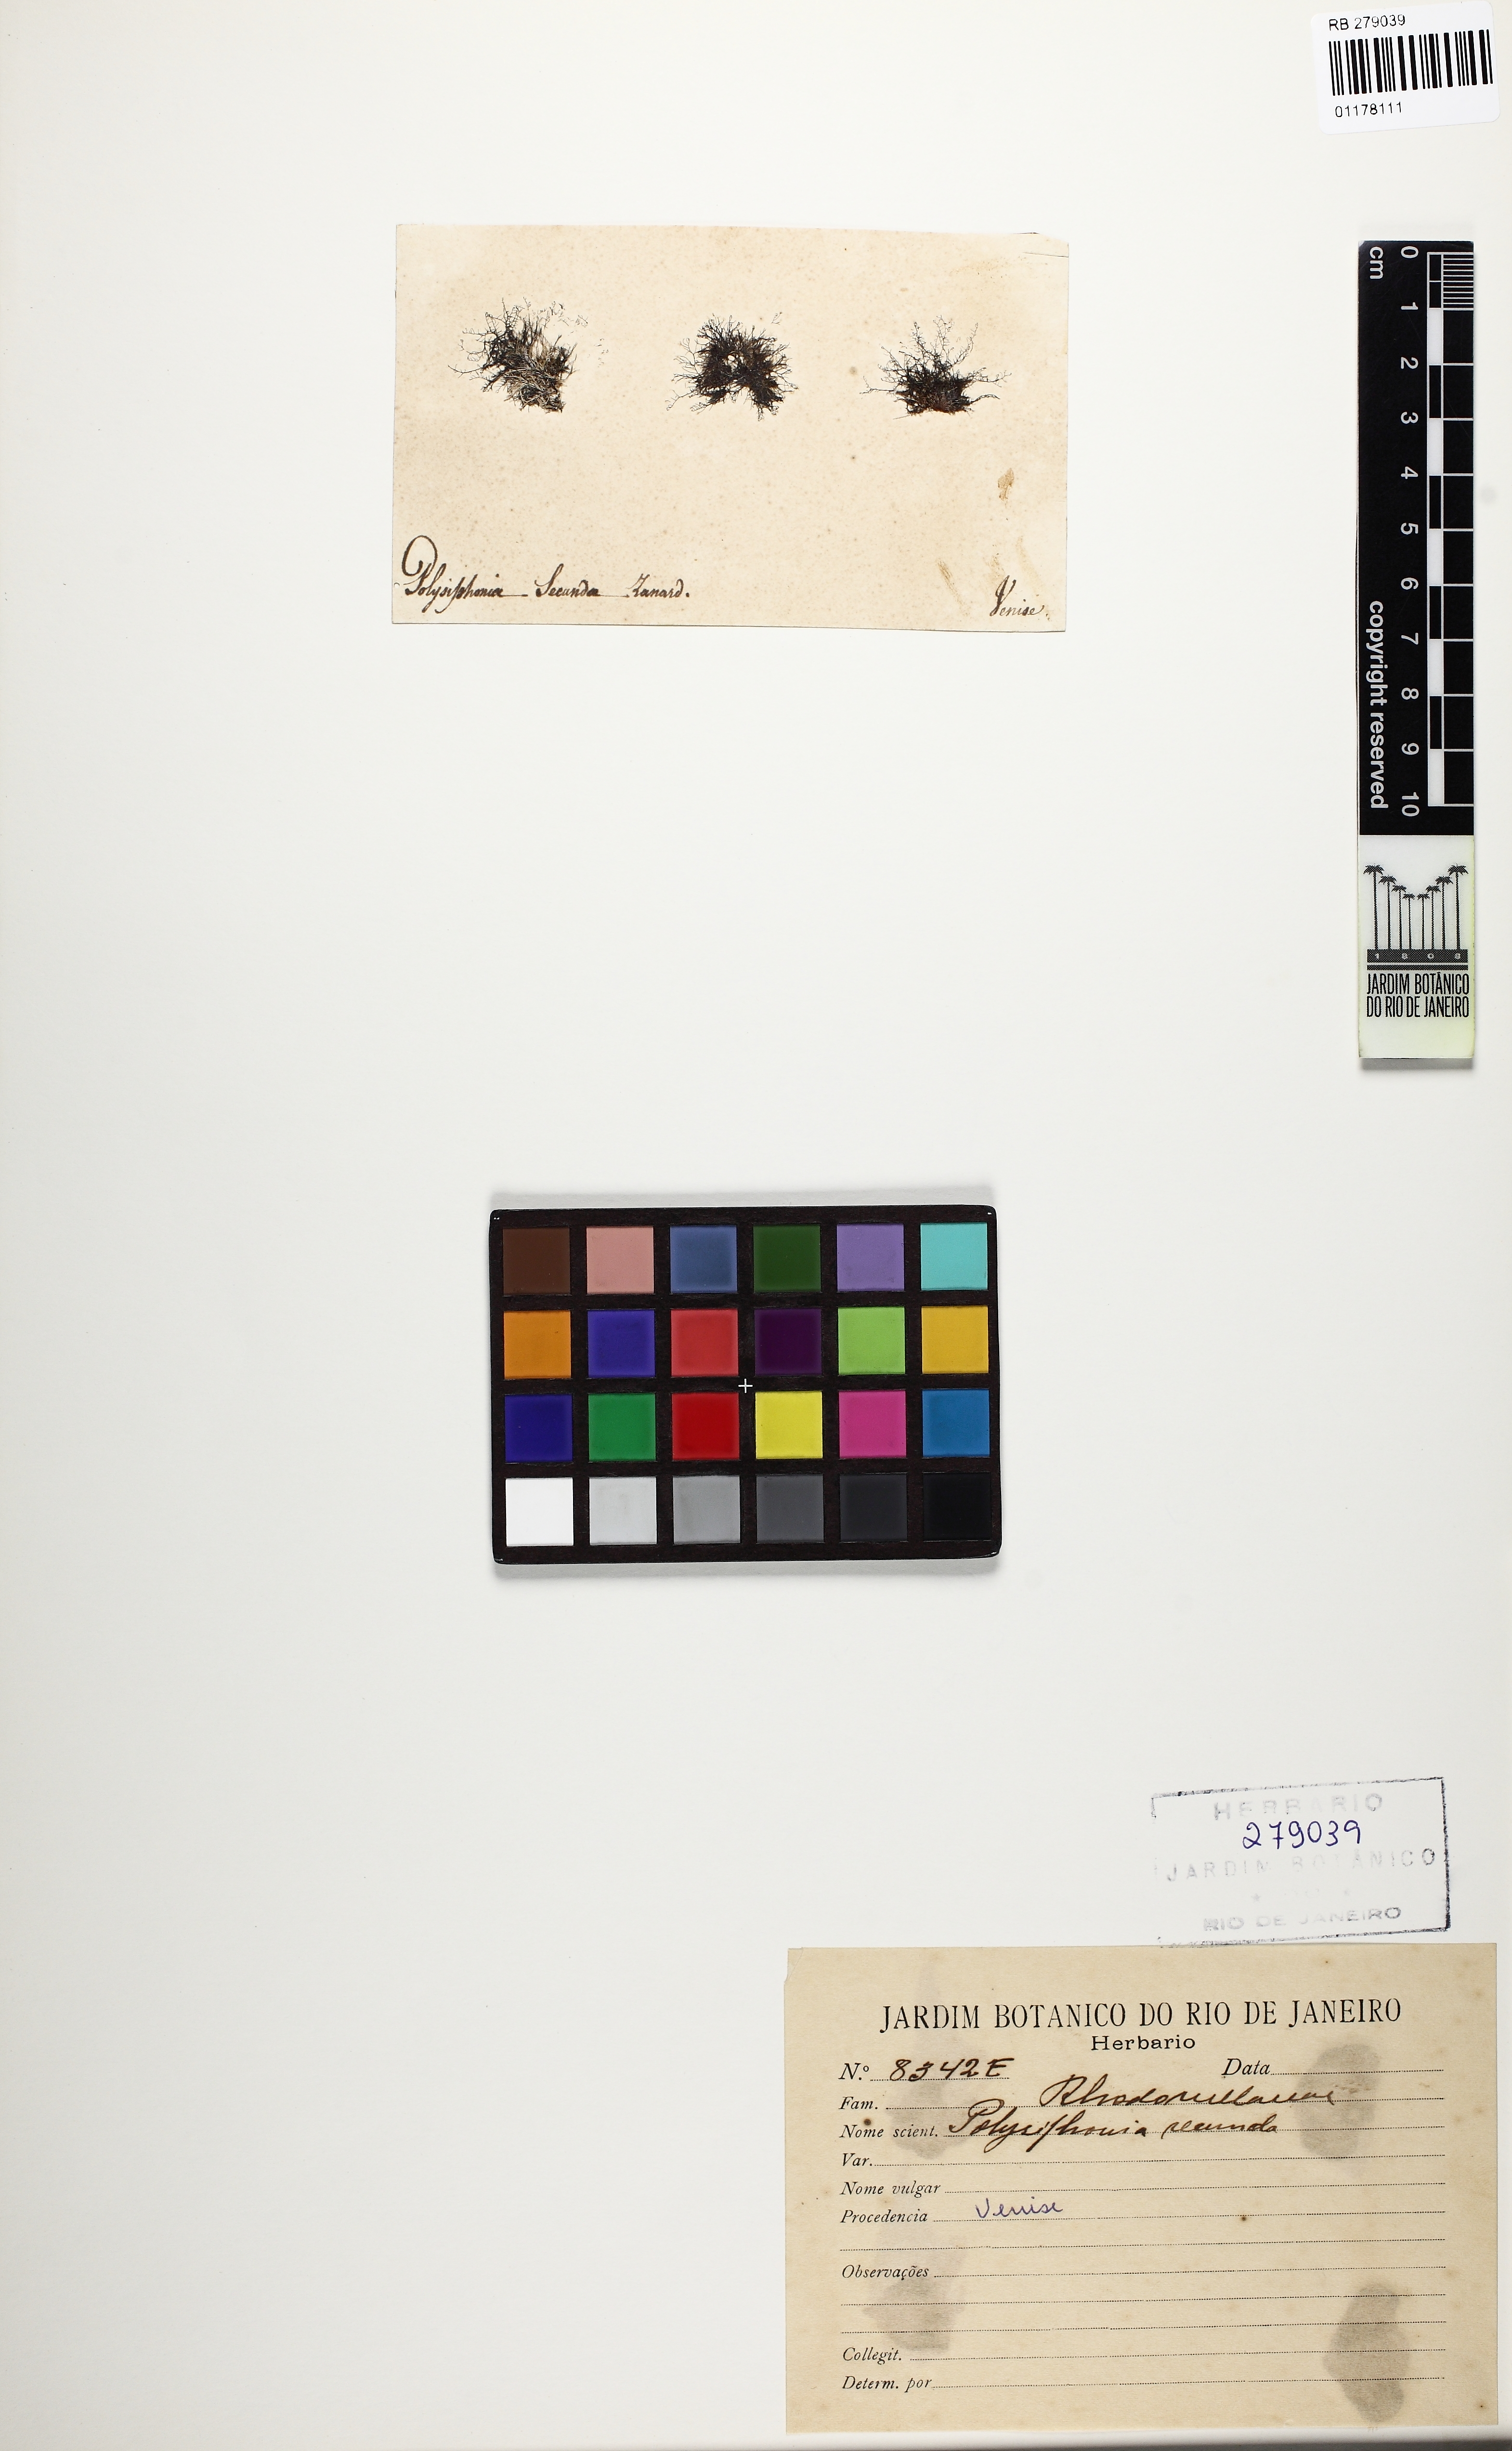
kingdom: Plantae
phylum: Rhodophyta
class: Florideophyceae
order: Ceramiales
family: Rhodomelaceae
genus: Herposiphonia
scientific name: Herposiphonia secunda
